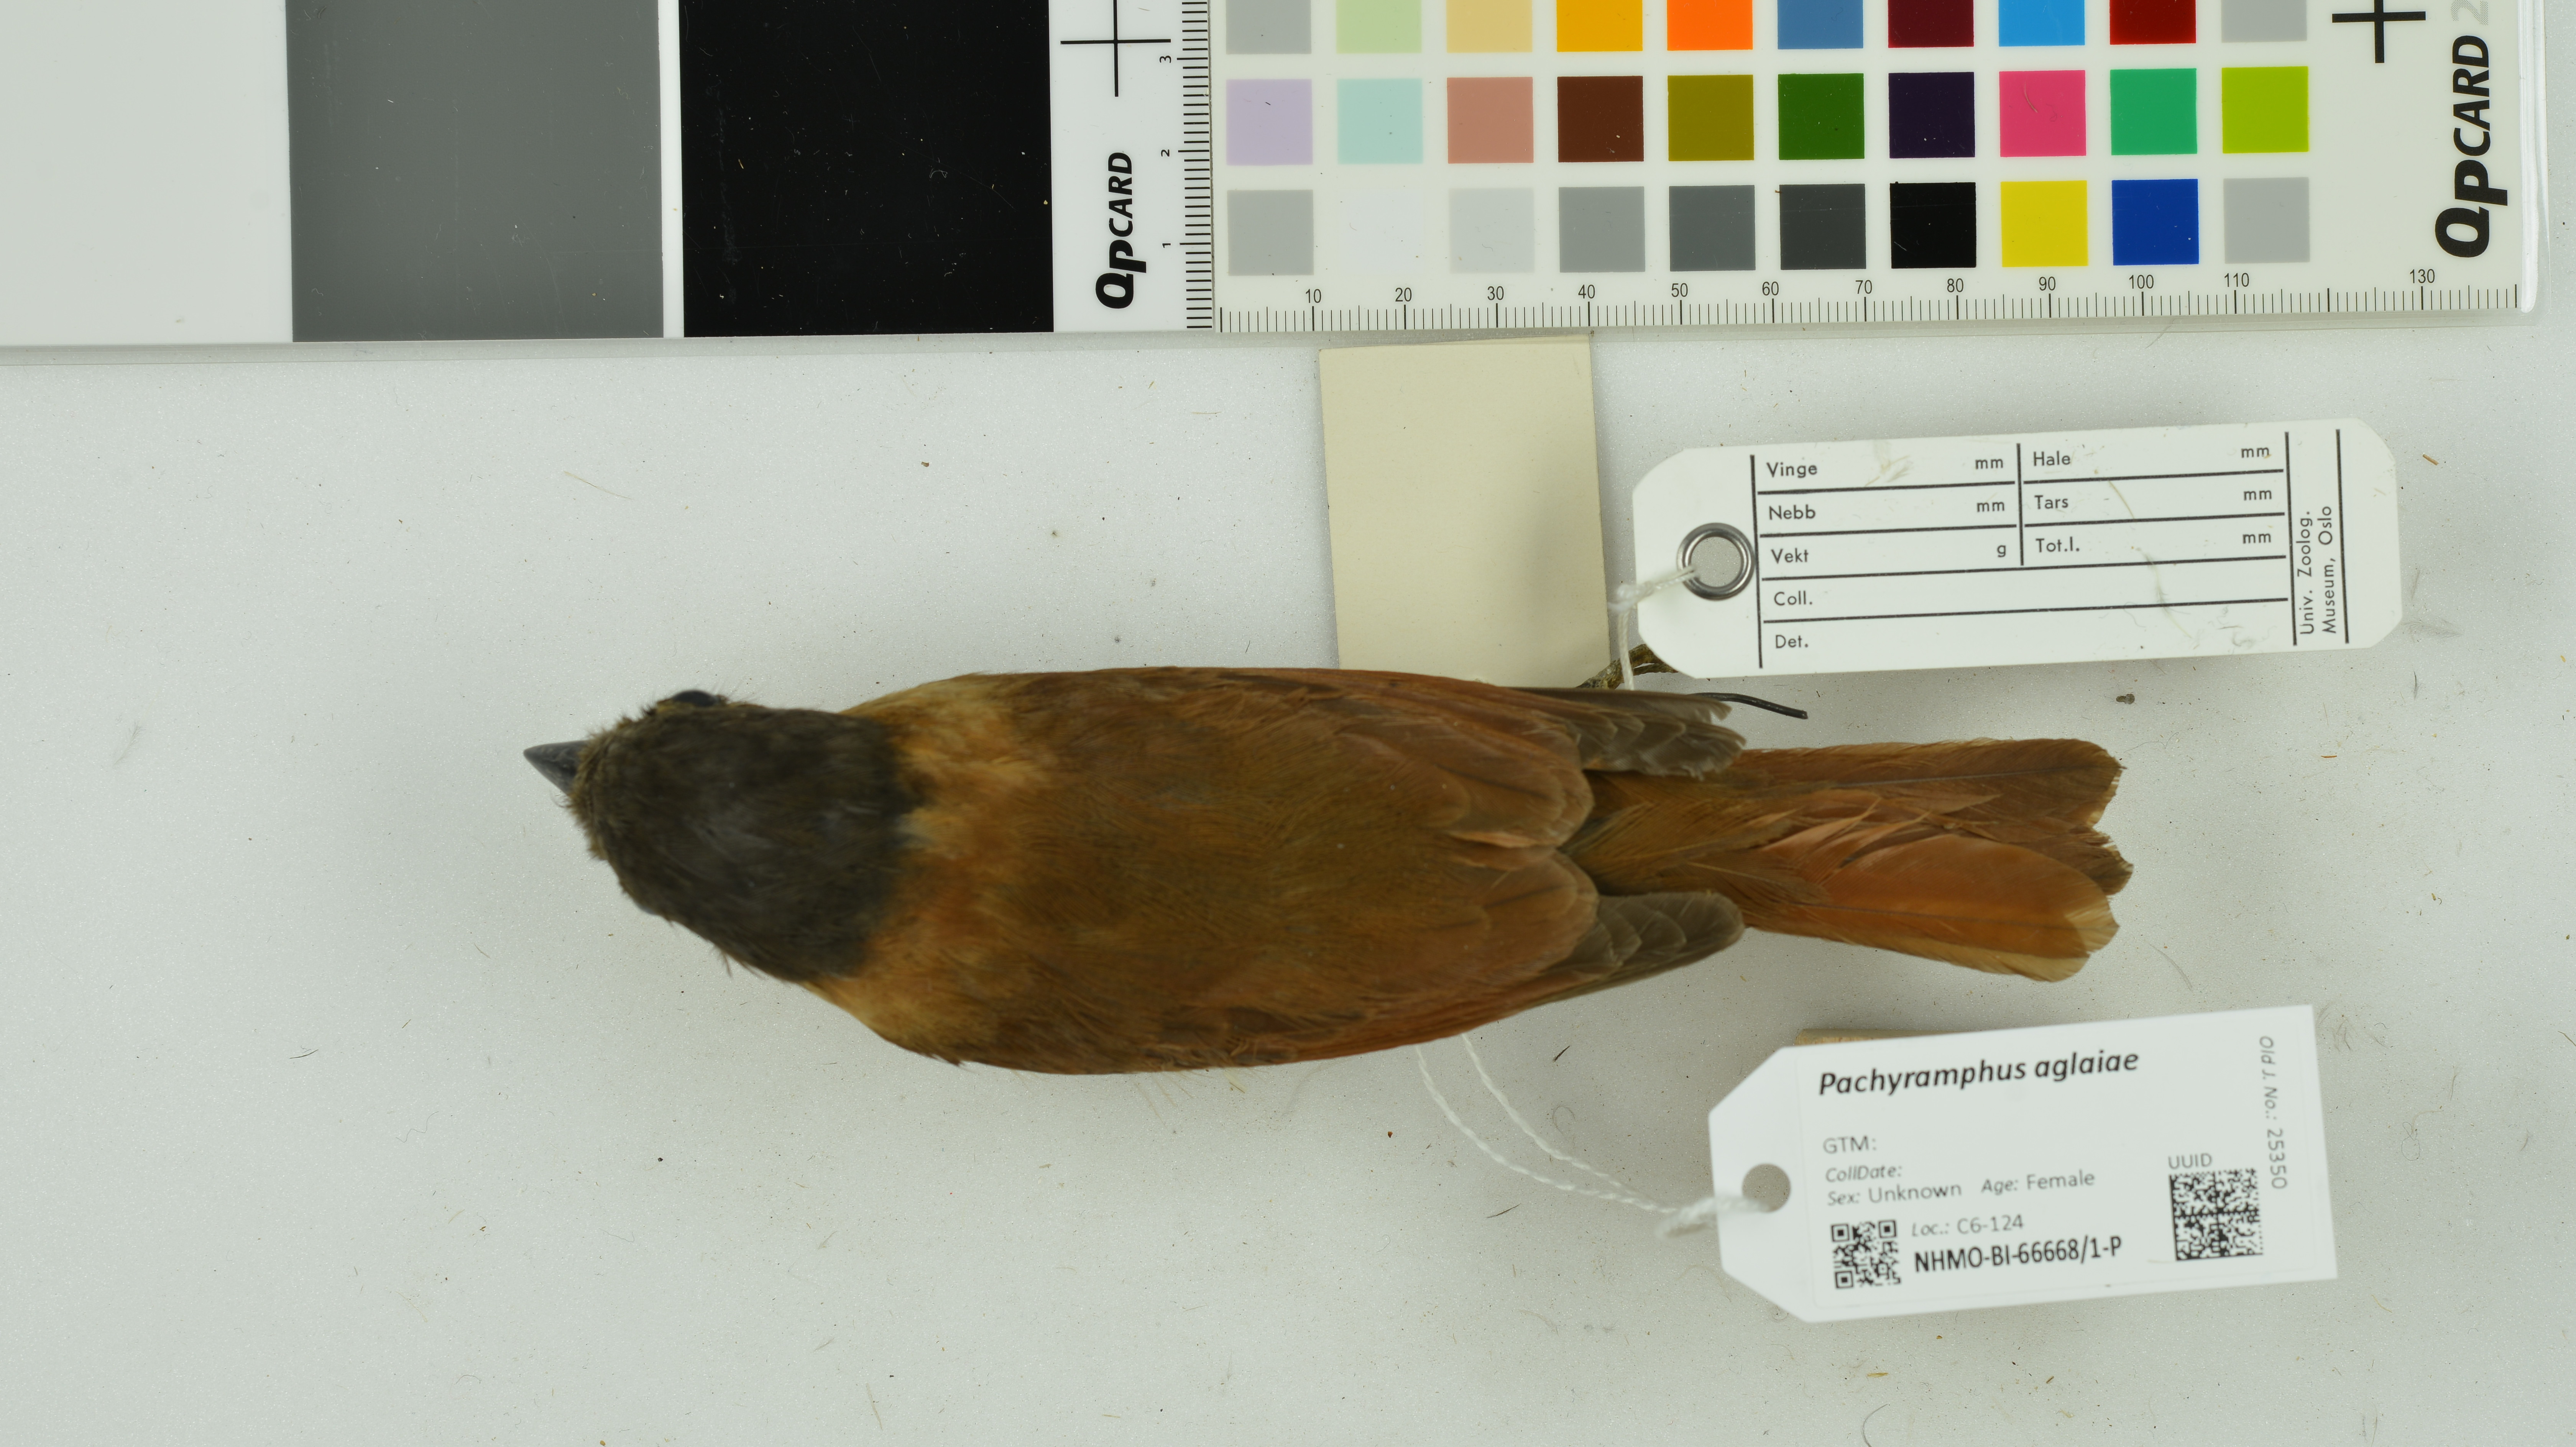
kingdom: Animalia
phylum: Chordata
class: Aves
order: Passeriformes
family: Cotingidae
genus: Pachyramphus
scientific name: Pachyramphus aglaiae
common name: Rose-throated becard
